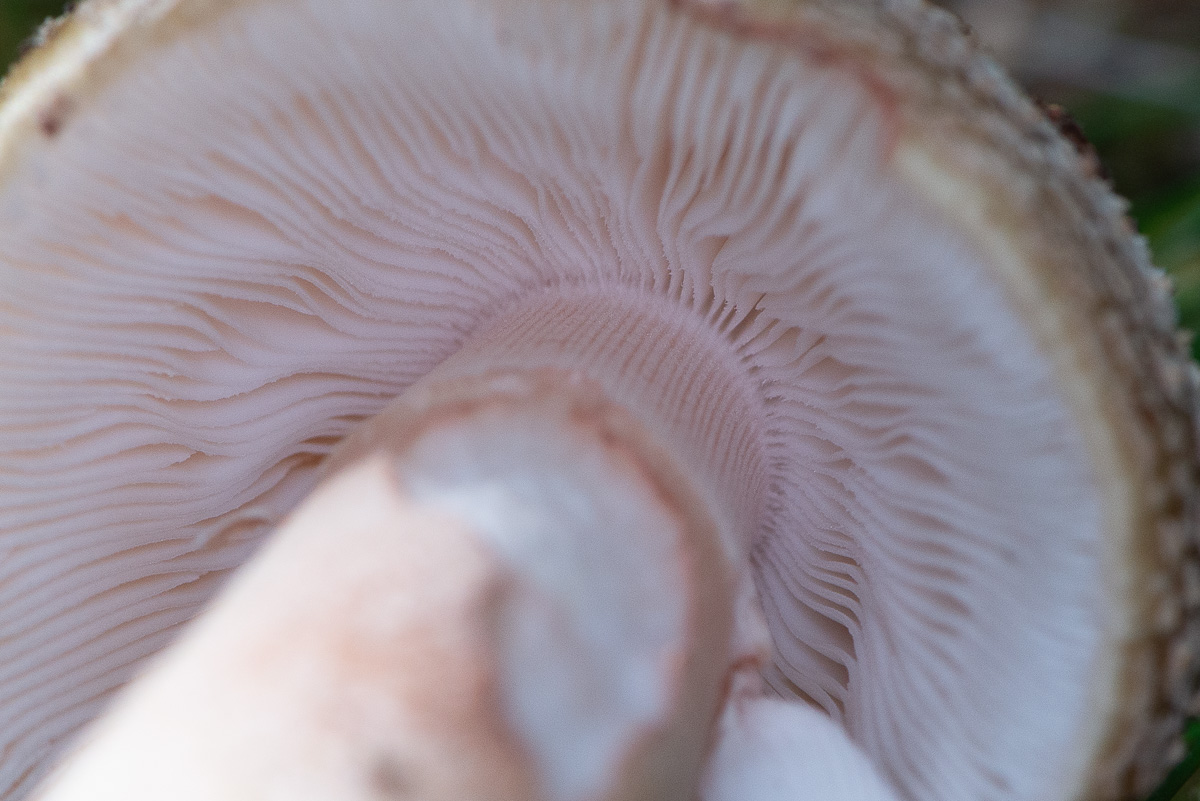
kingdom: Fungi
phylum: Basidiomycota
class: Agaricomycetes
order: Agaricales
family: Amanitaceae
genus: Amanita
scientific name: Amanita rubescens
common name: rødmende fluesvamp
